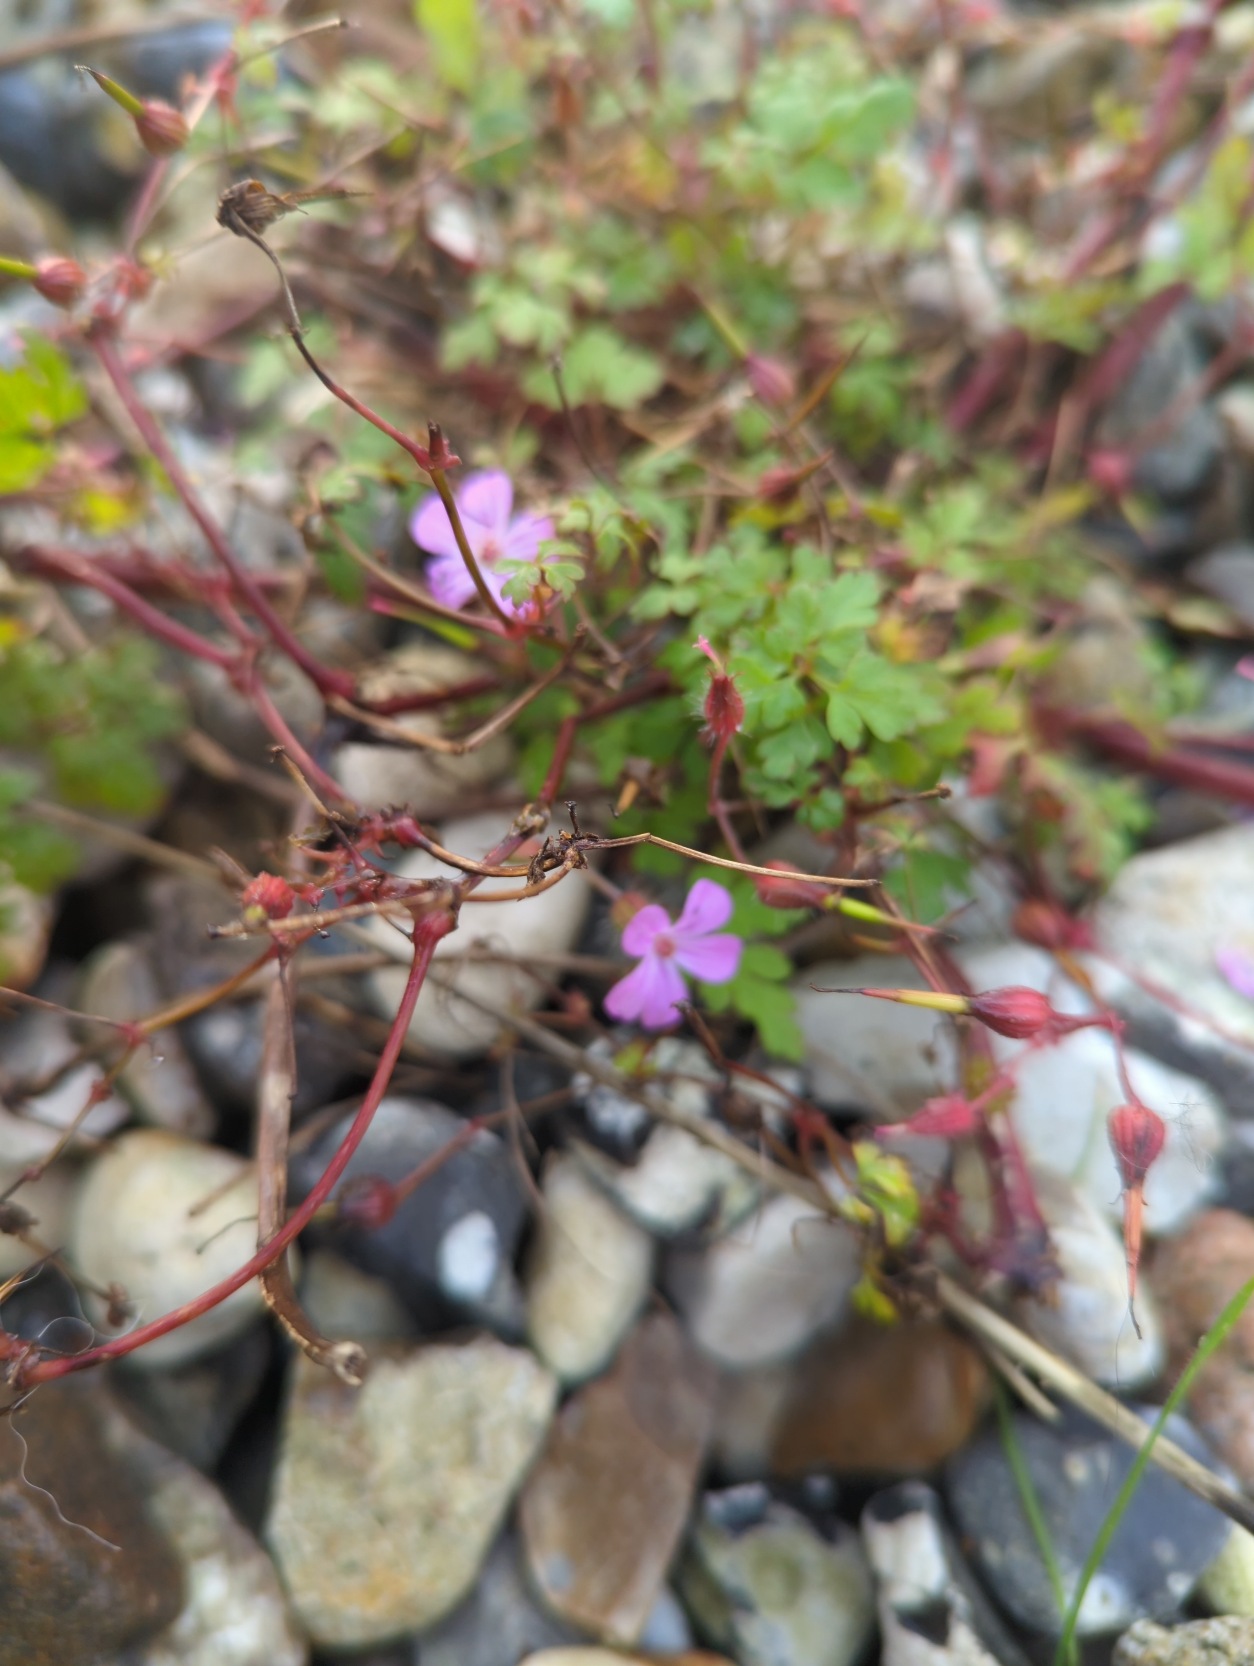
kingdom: Plantae
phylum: Tracheophyta
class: Magnoliopsida
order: Geraniales
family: Geraniaceae
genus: Geranium
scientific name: Geranium robertianum
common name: Stinkende storkenæb
